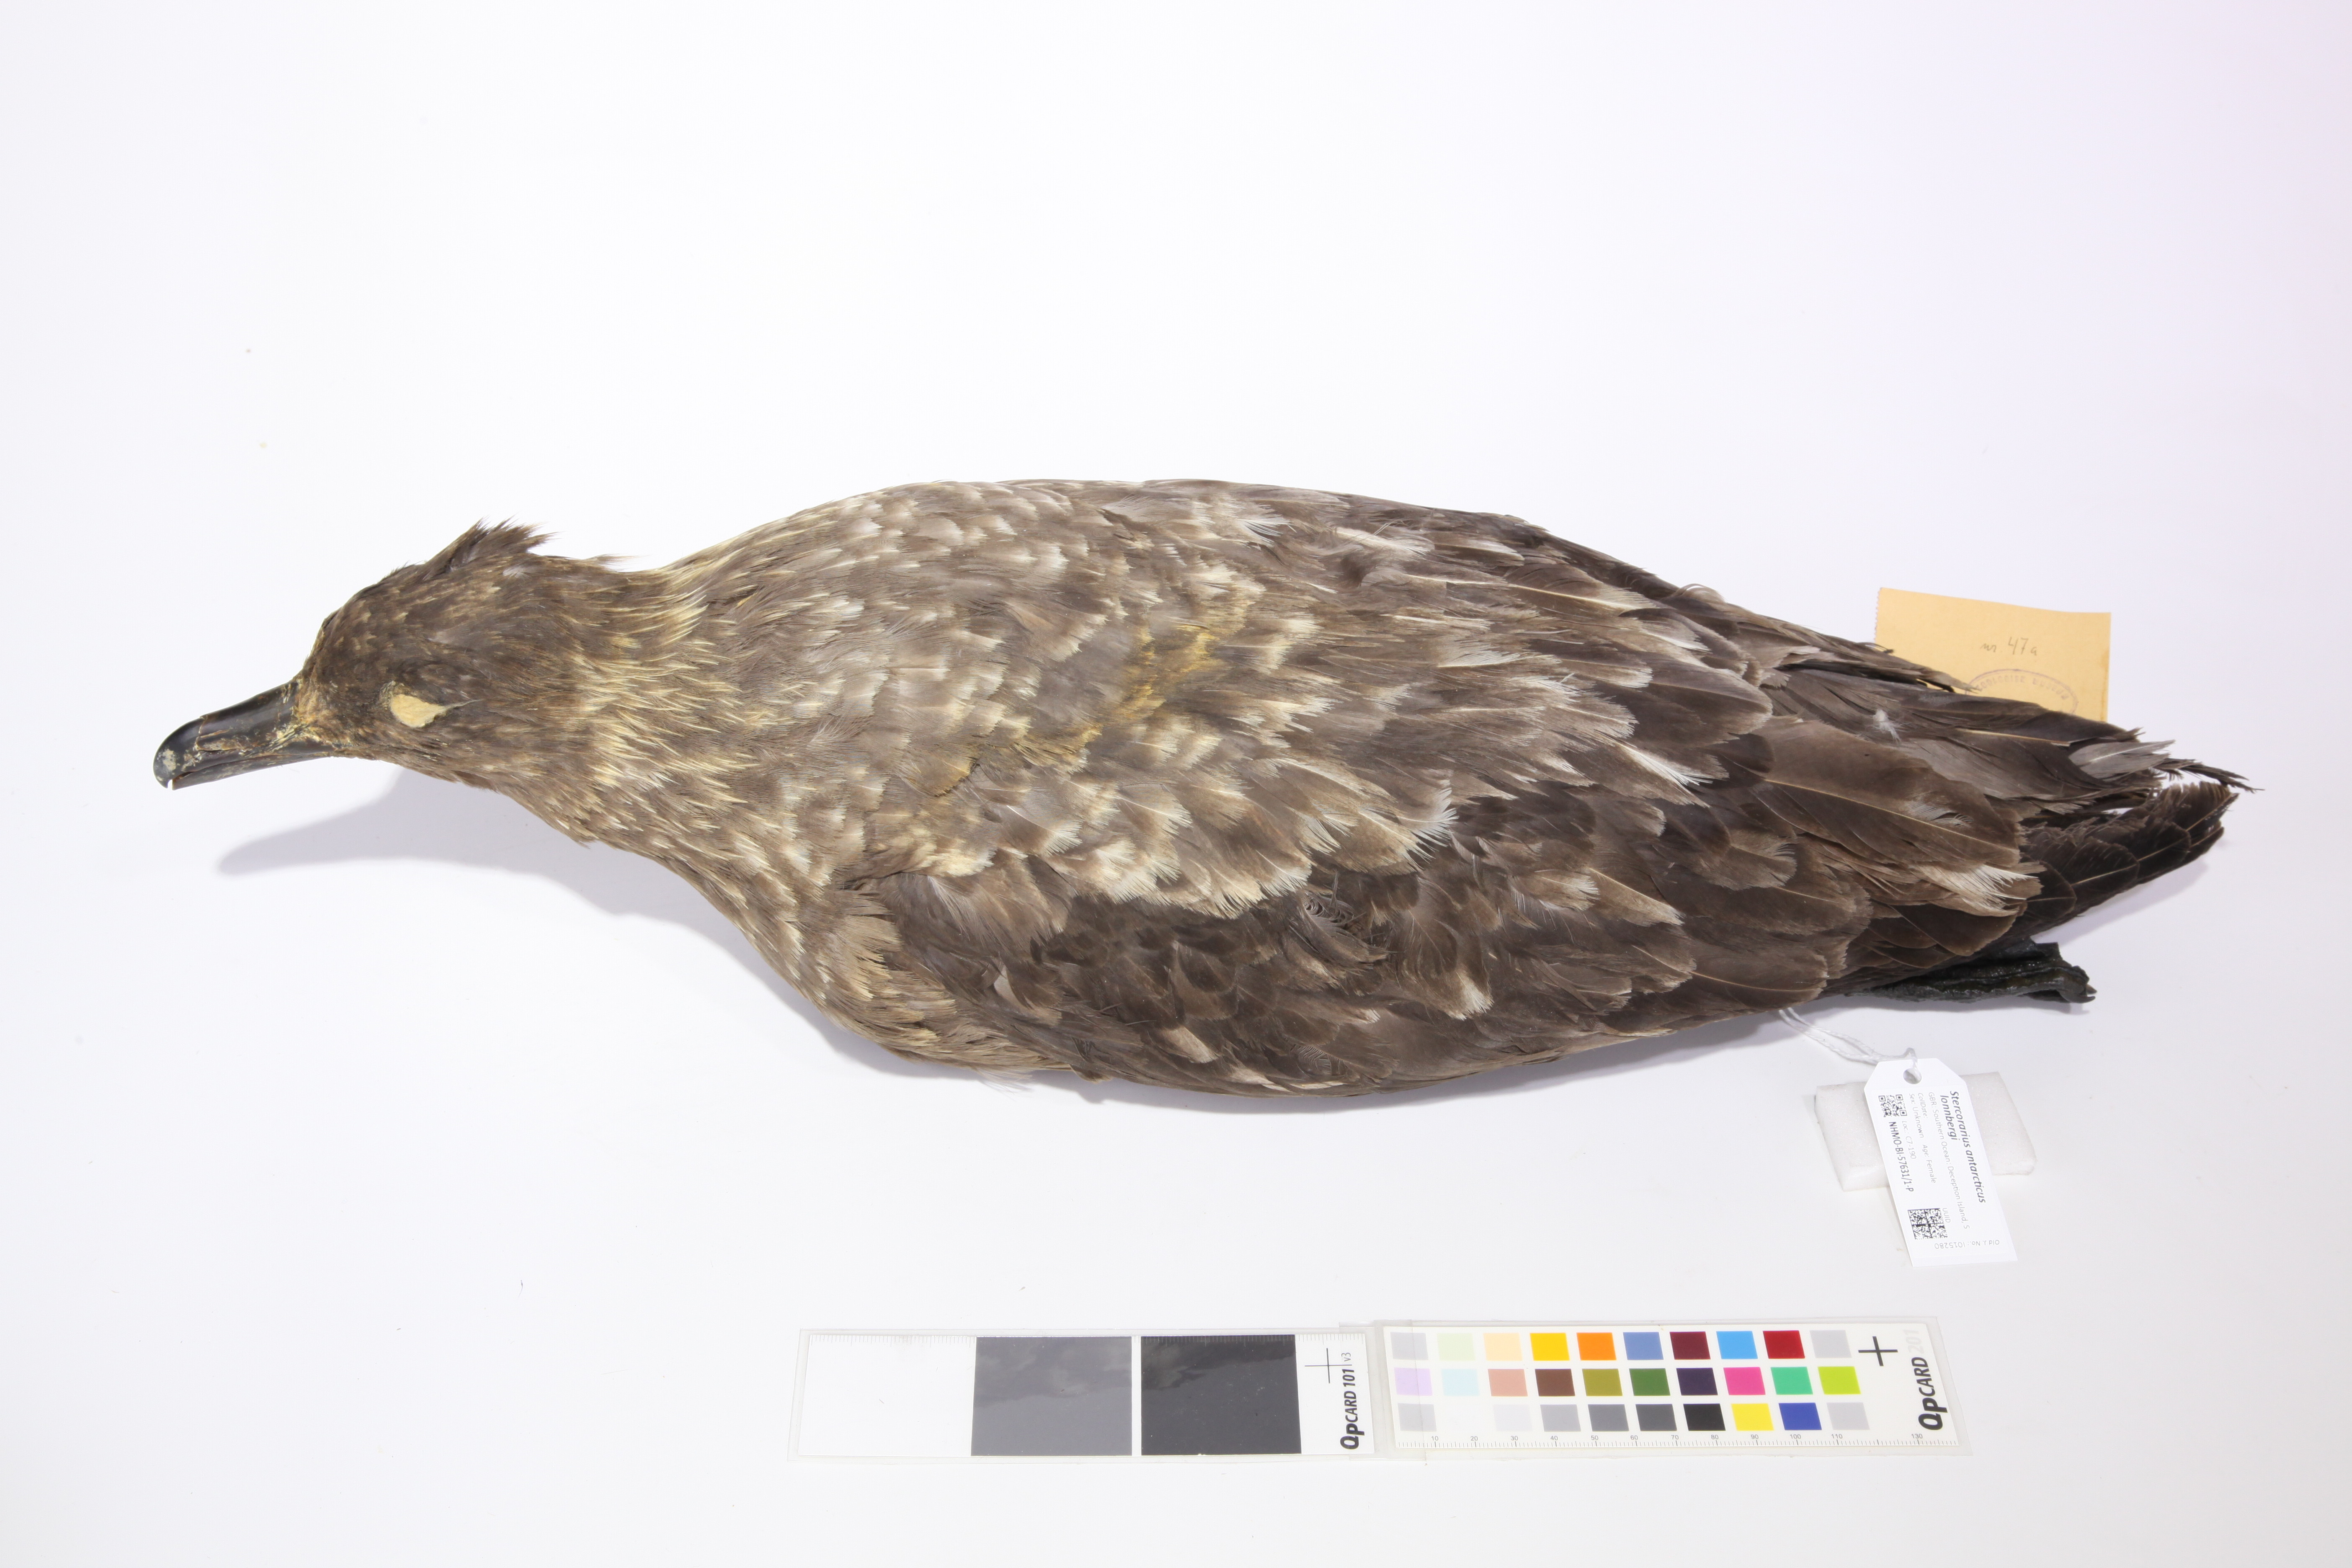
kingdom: Animalia
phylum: Chordata
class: Aves
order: Charadriiformes
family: Stercorariidae
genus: Stercorarius
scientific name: Stercorarius antarcticus
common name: Brown skua
